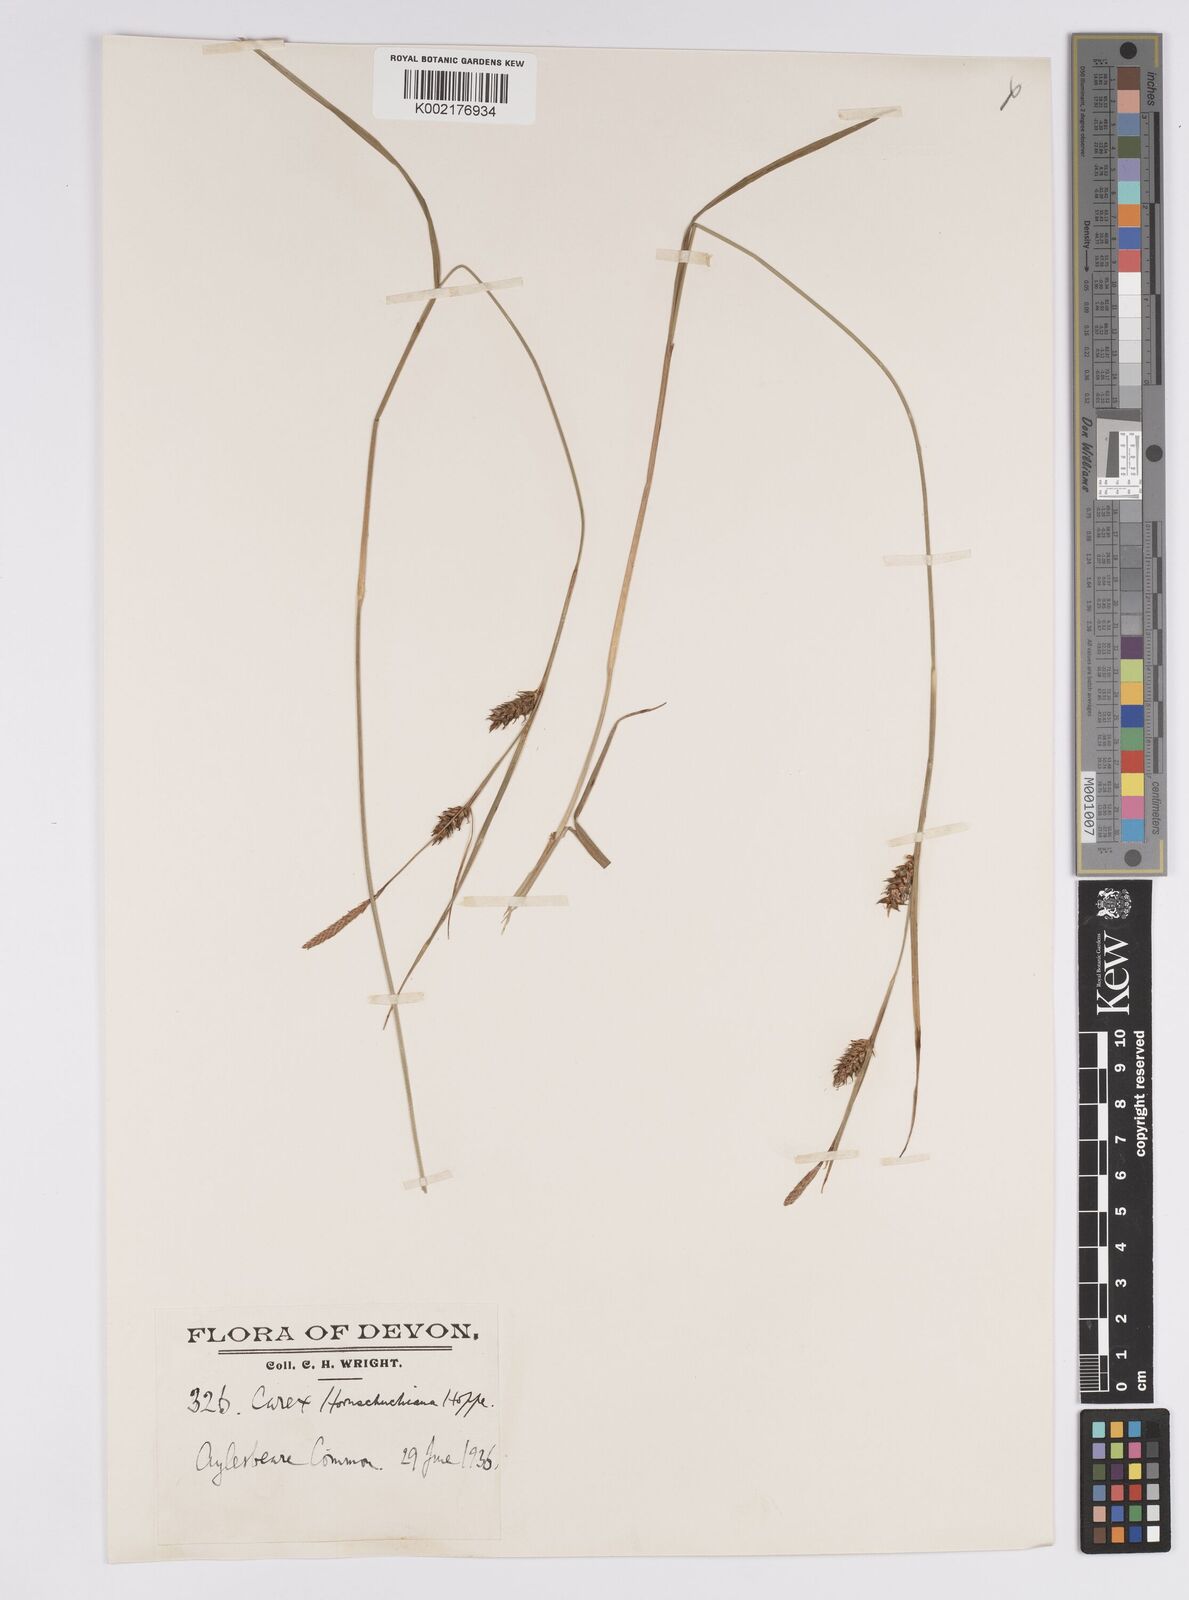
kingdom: Plantae
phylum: Tracheophyta
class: Liliopsida
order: Poales
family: Cyperaceae
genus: Carex
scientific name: Carex hostiana
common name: Tawny sedge
